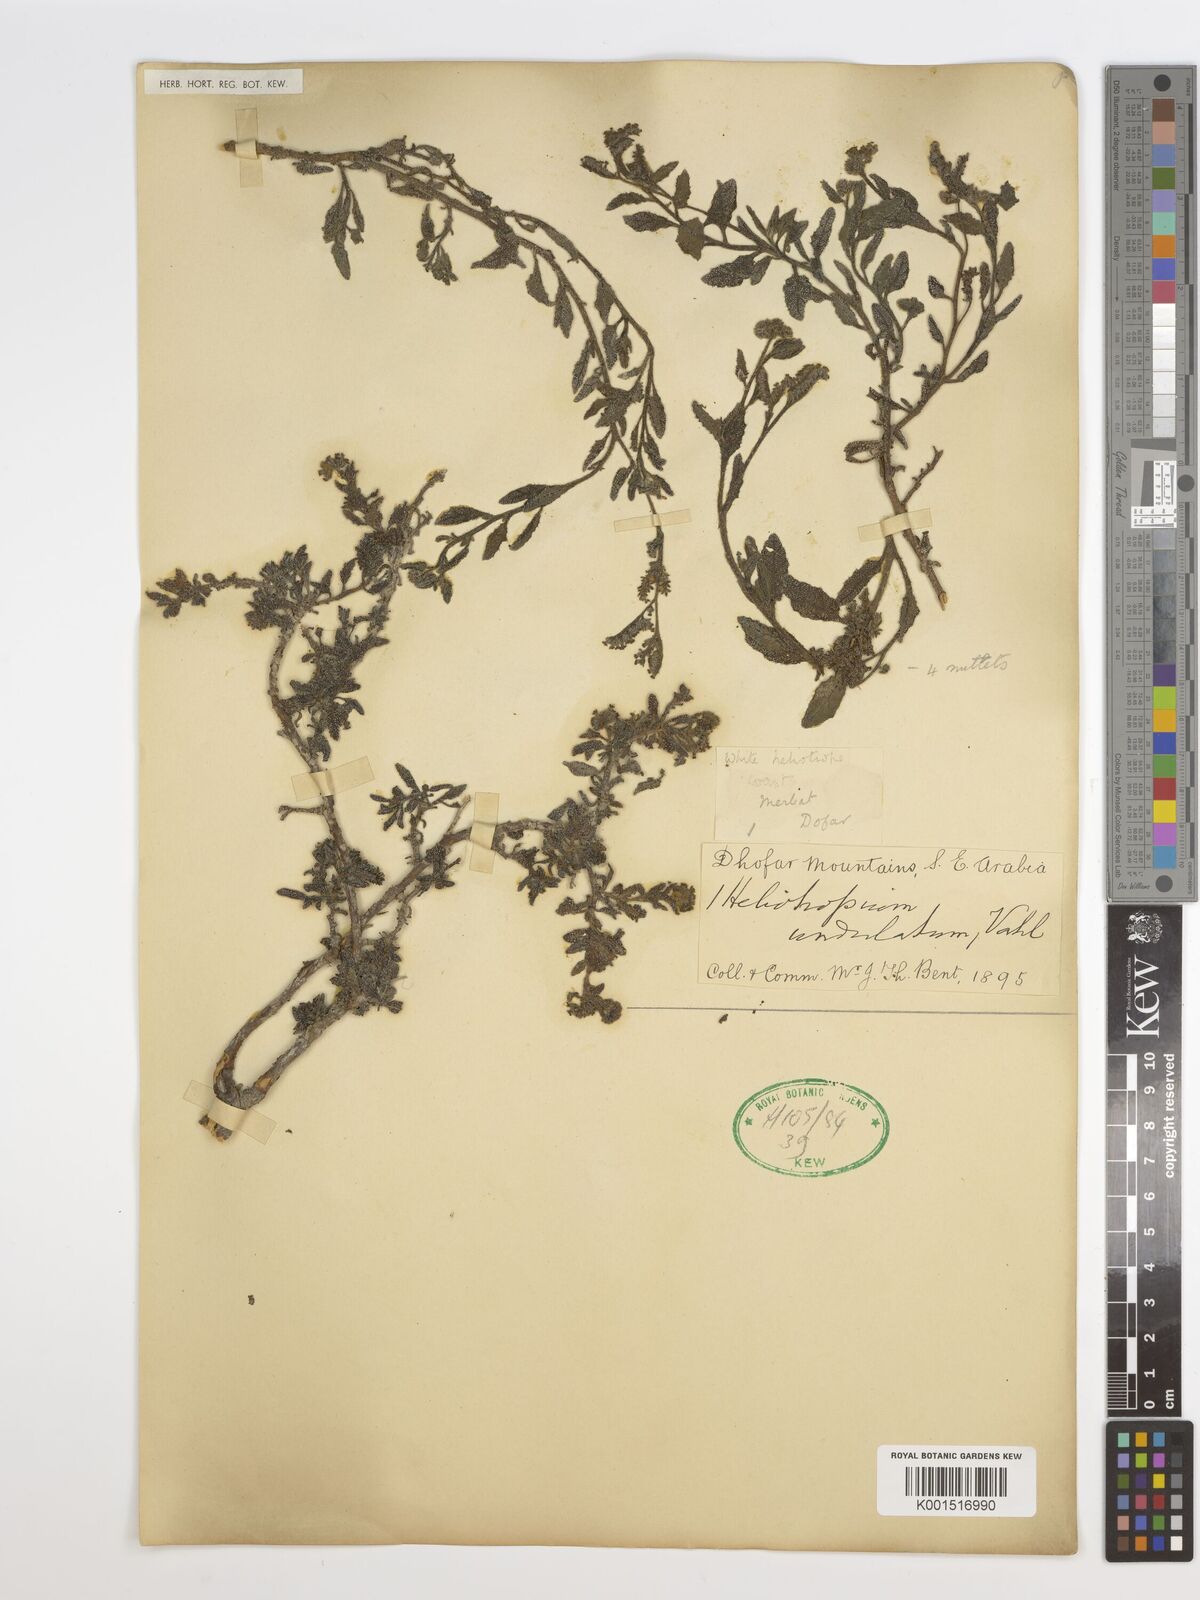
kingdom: Plantae
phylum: Tracheophyta
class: Magnoliopsida
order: Boraginales
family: Heliotropiaceae
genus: Heliotropium
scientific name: Heliotropium bacciferum
